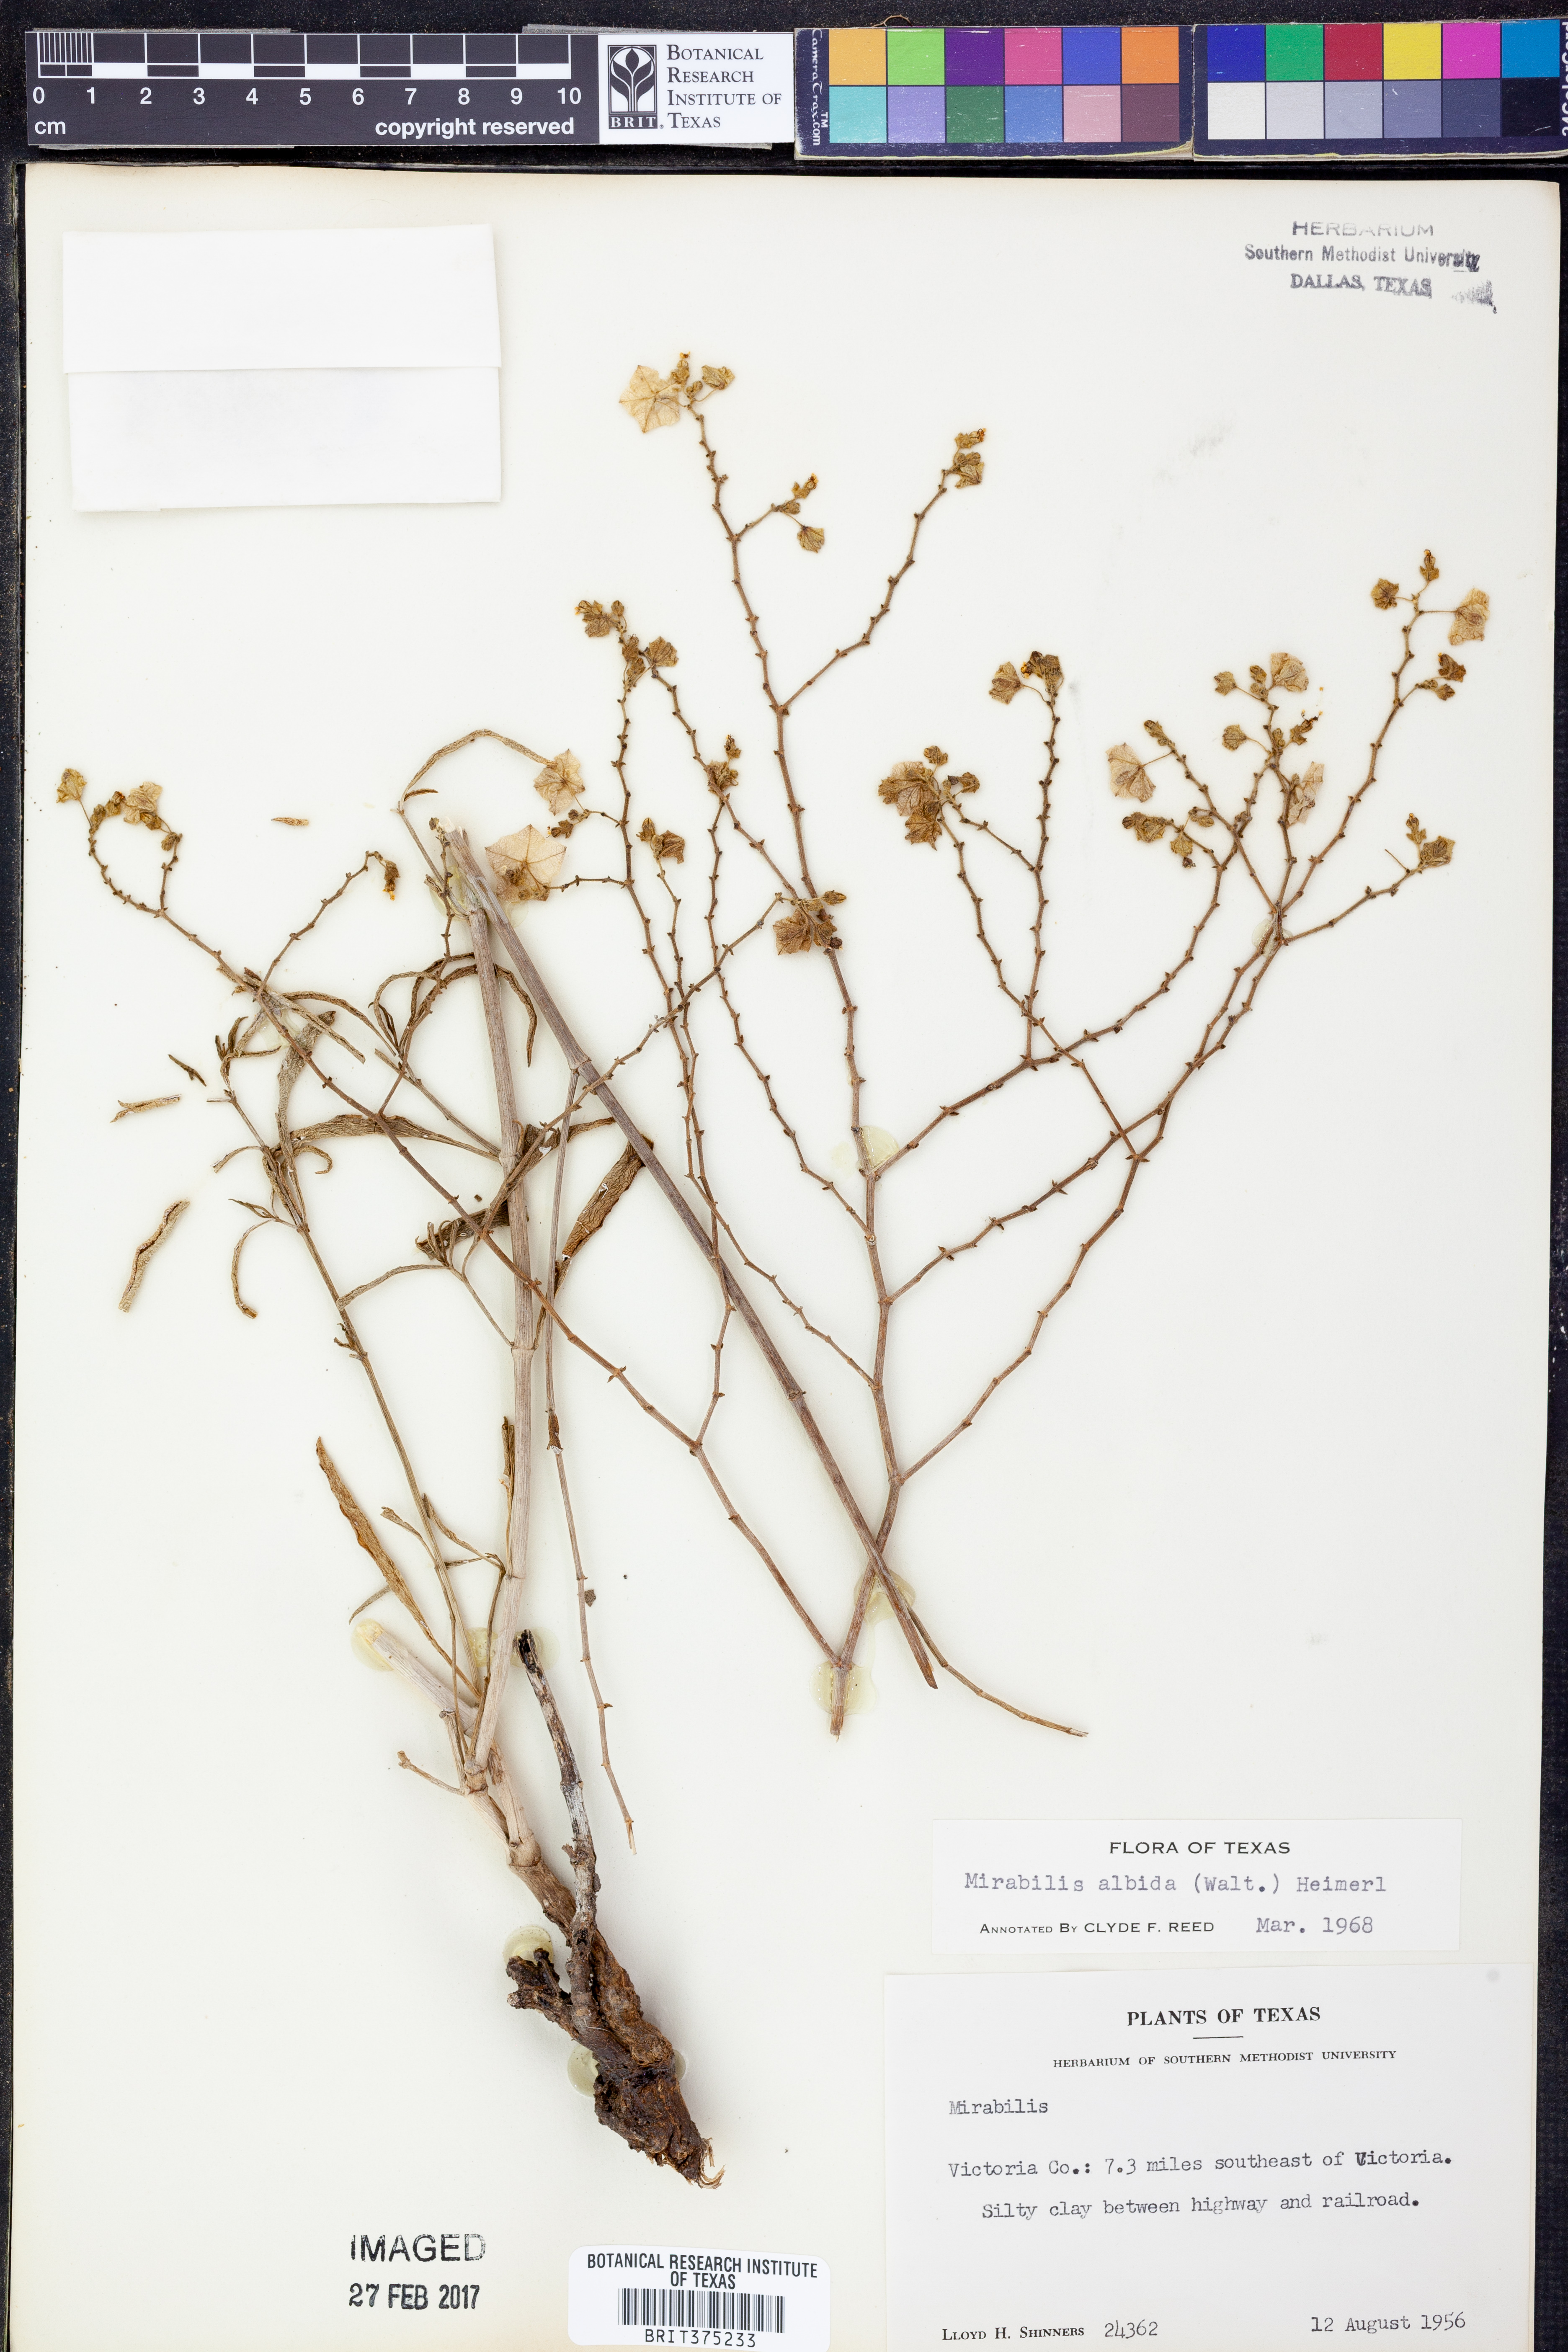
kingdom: Plantae
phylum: Tracheophyta
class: Magnoliopsida
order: Caryophyllales
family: Nyctaginaceae
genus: Mirabilis
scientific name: Mirabilis albida
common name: Hairy four-o'clock
